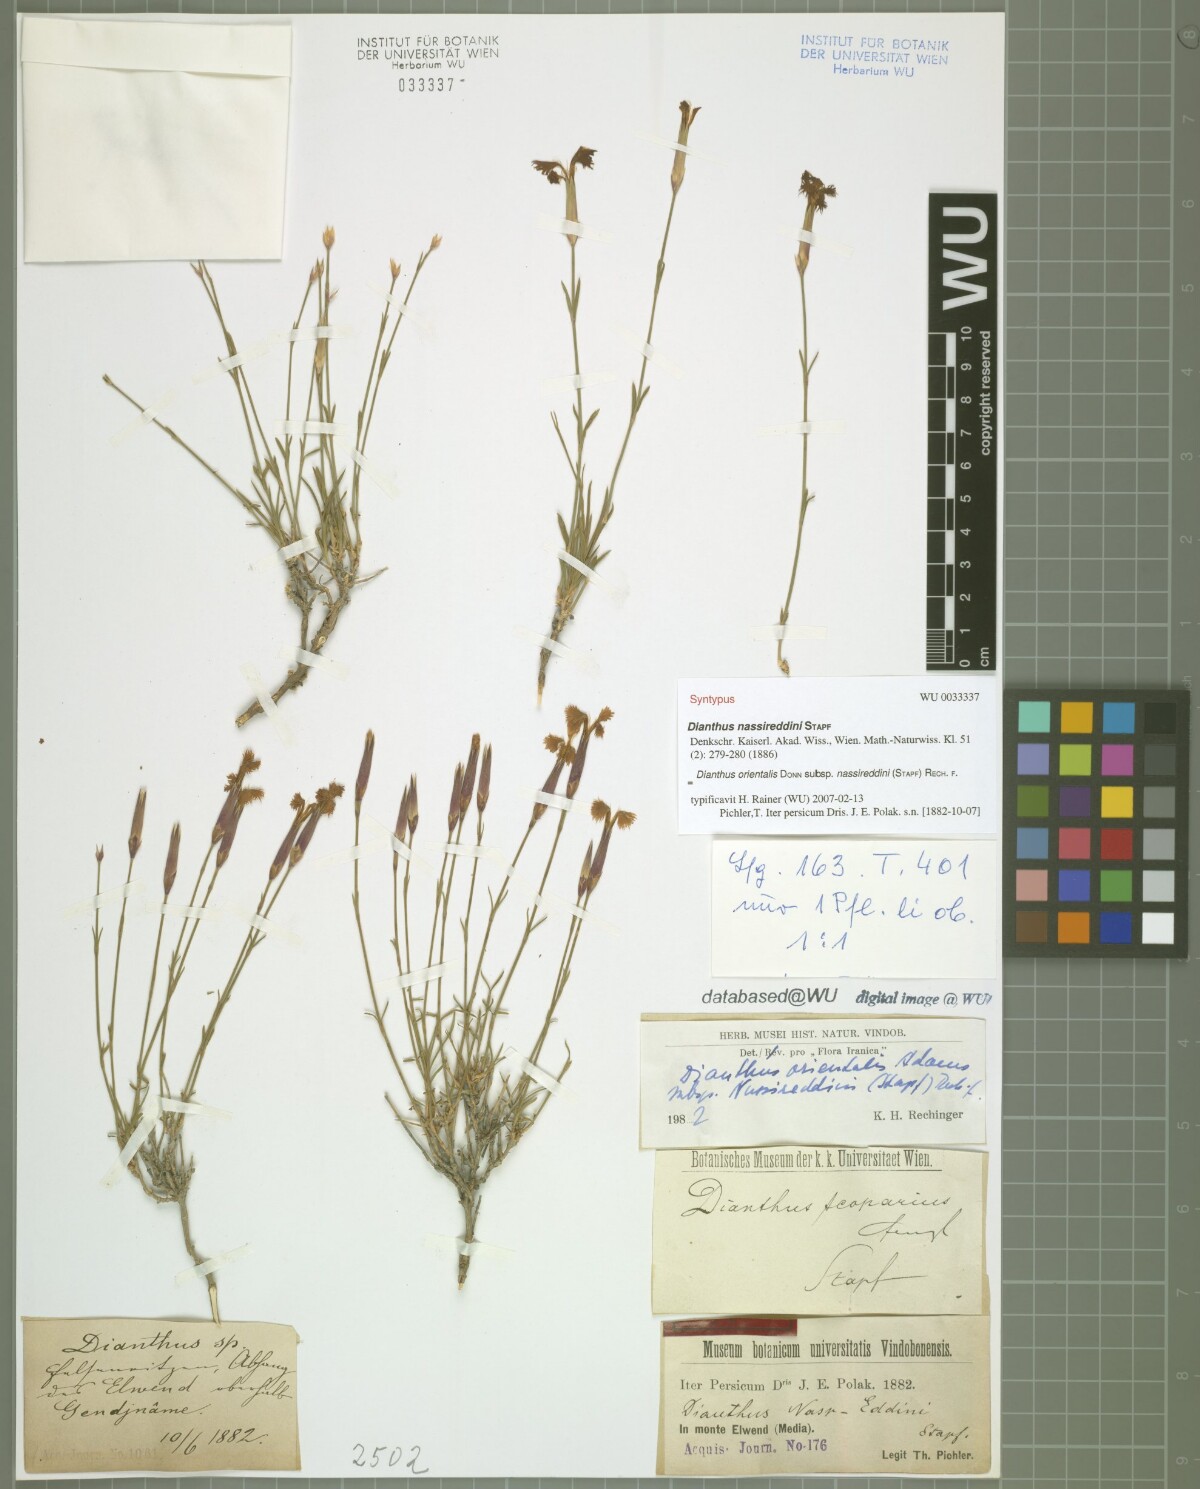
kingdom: Plantae
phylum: Tracheophyta
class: Magnoliopsida
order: Caryophyllales
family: Caryophyllaceae
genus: Dianthus
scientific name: Dianthus orientalis
